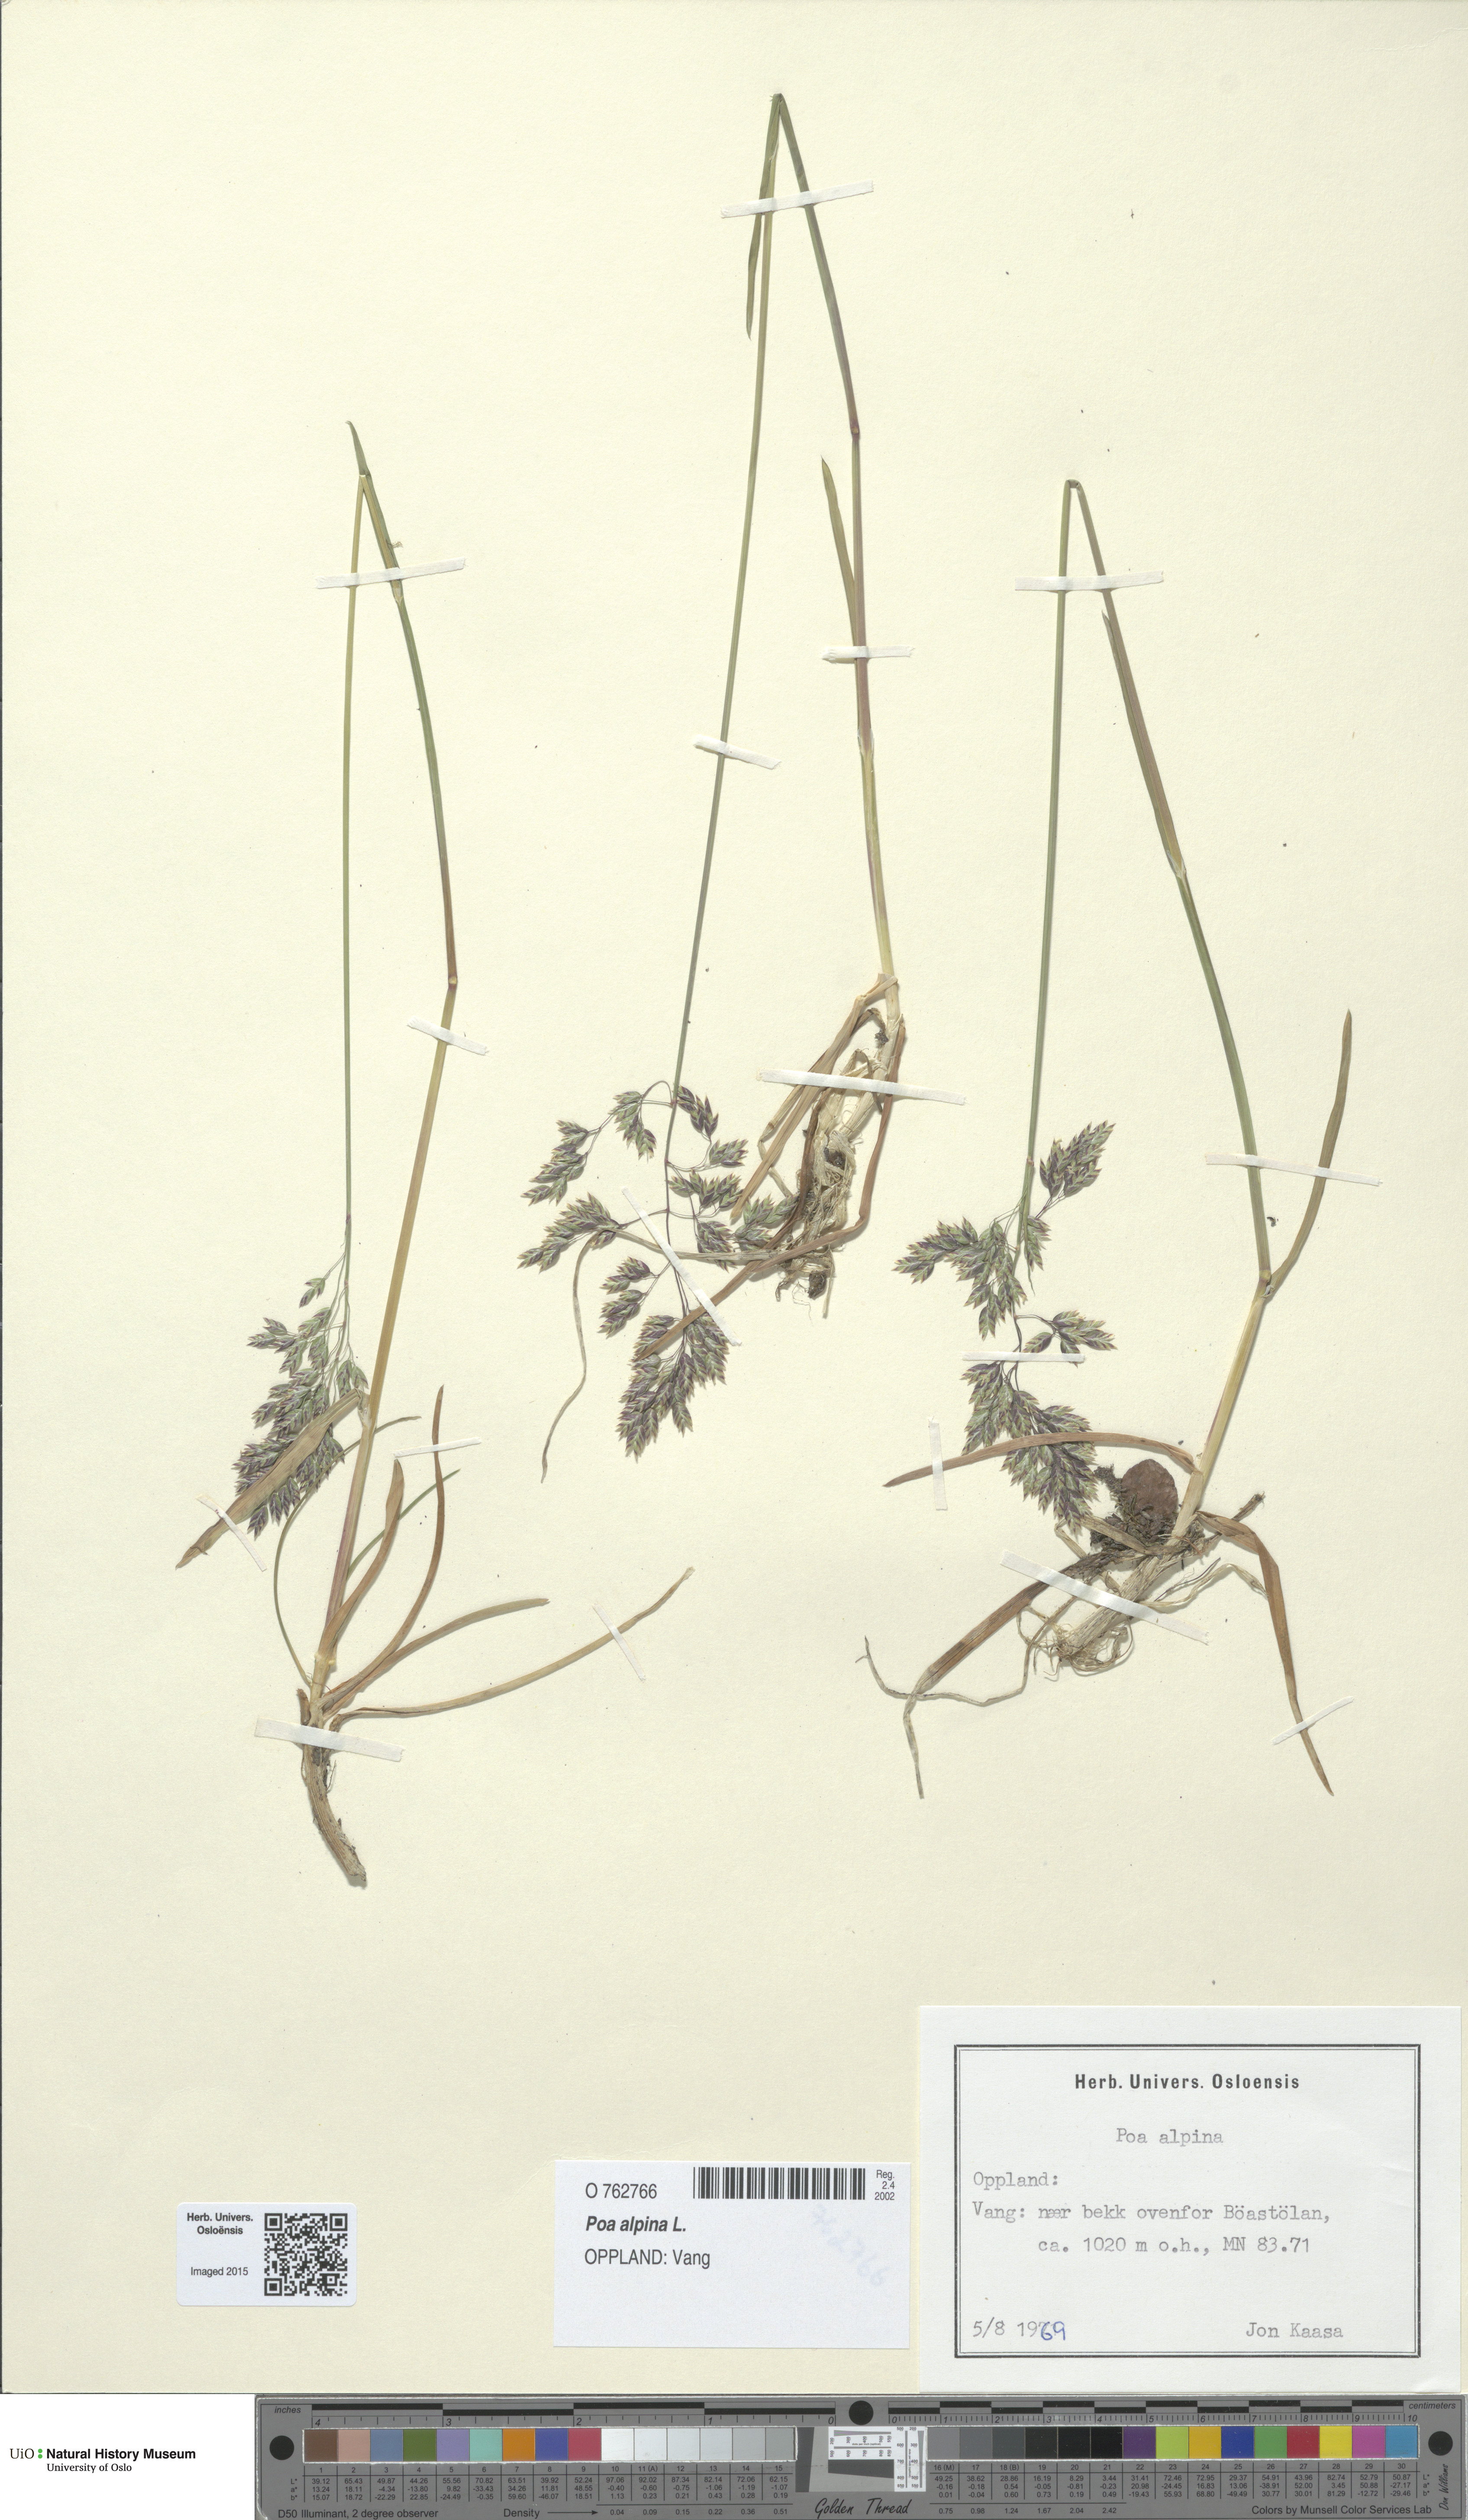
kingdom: Plantae
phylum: Tracheophyta
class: Liliopsida
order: Poales
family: Poaceae
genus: Poa
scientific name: Poa alpina
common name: Alpine bluegrass
